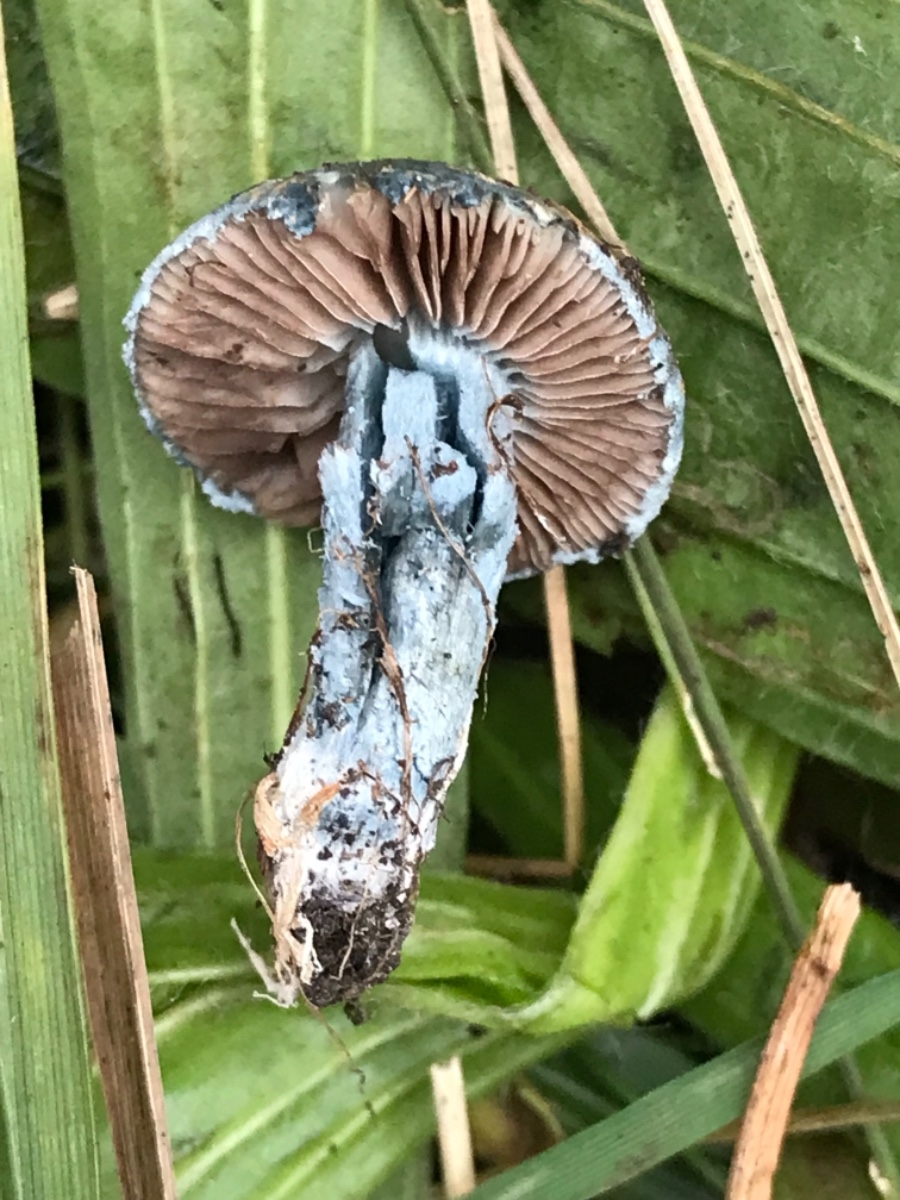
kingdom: Fungi
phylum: Basidiomycota
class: Agaricomycetes
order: Agaricales
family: Strophariaceae
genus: Stropharia
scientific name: Stropharia cyanea
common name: blågrøn bredblad
